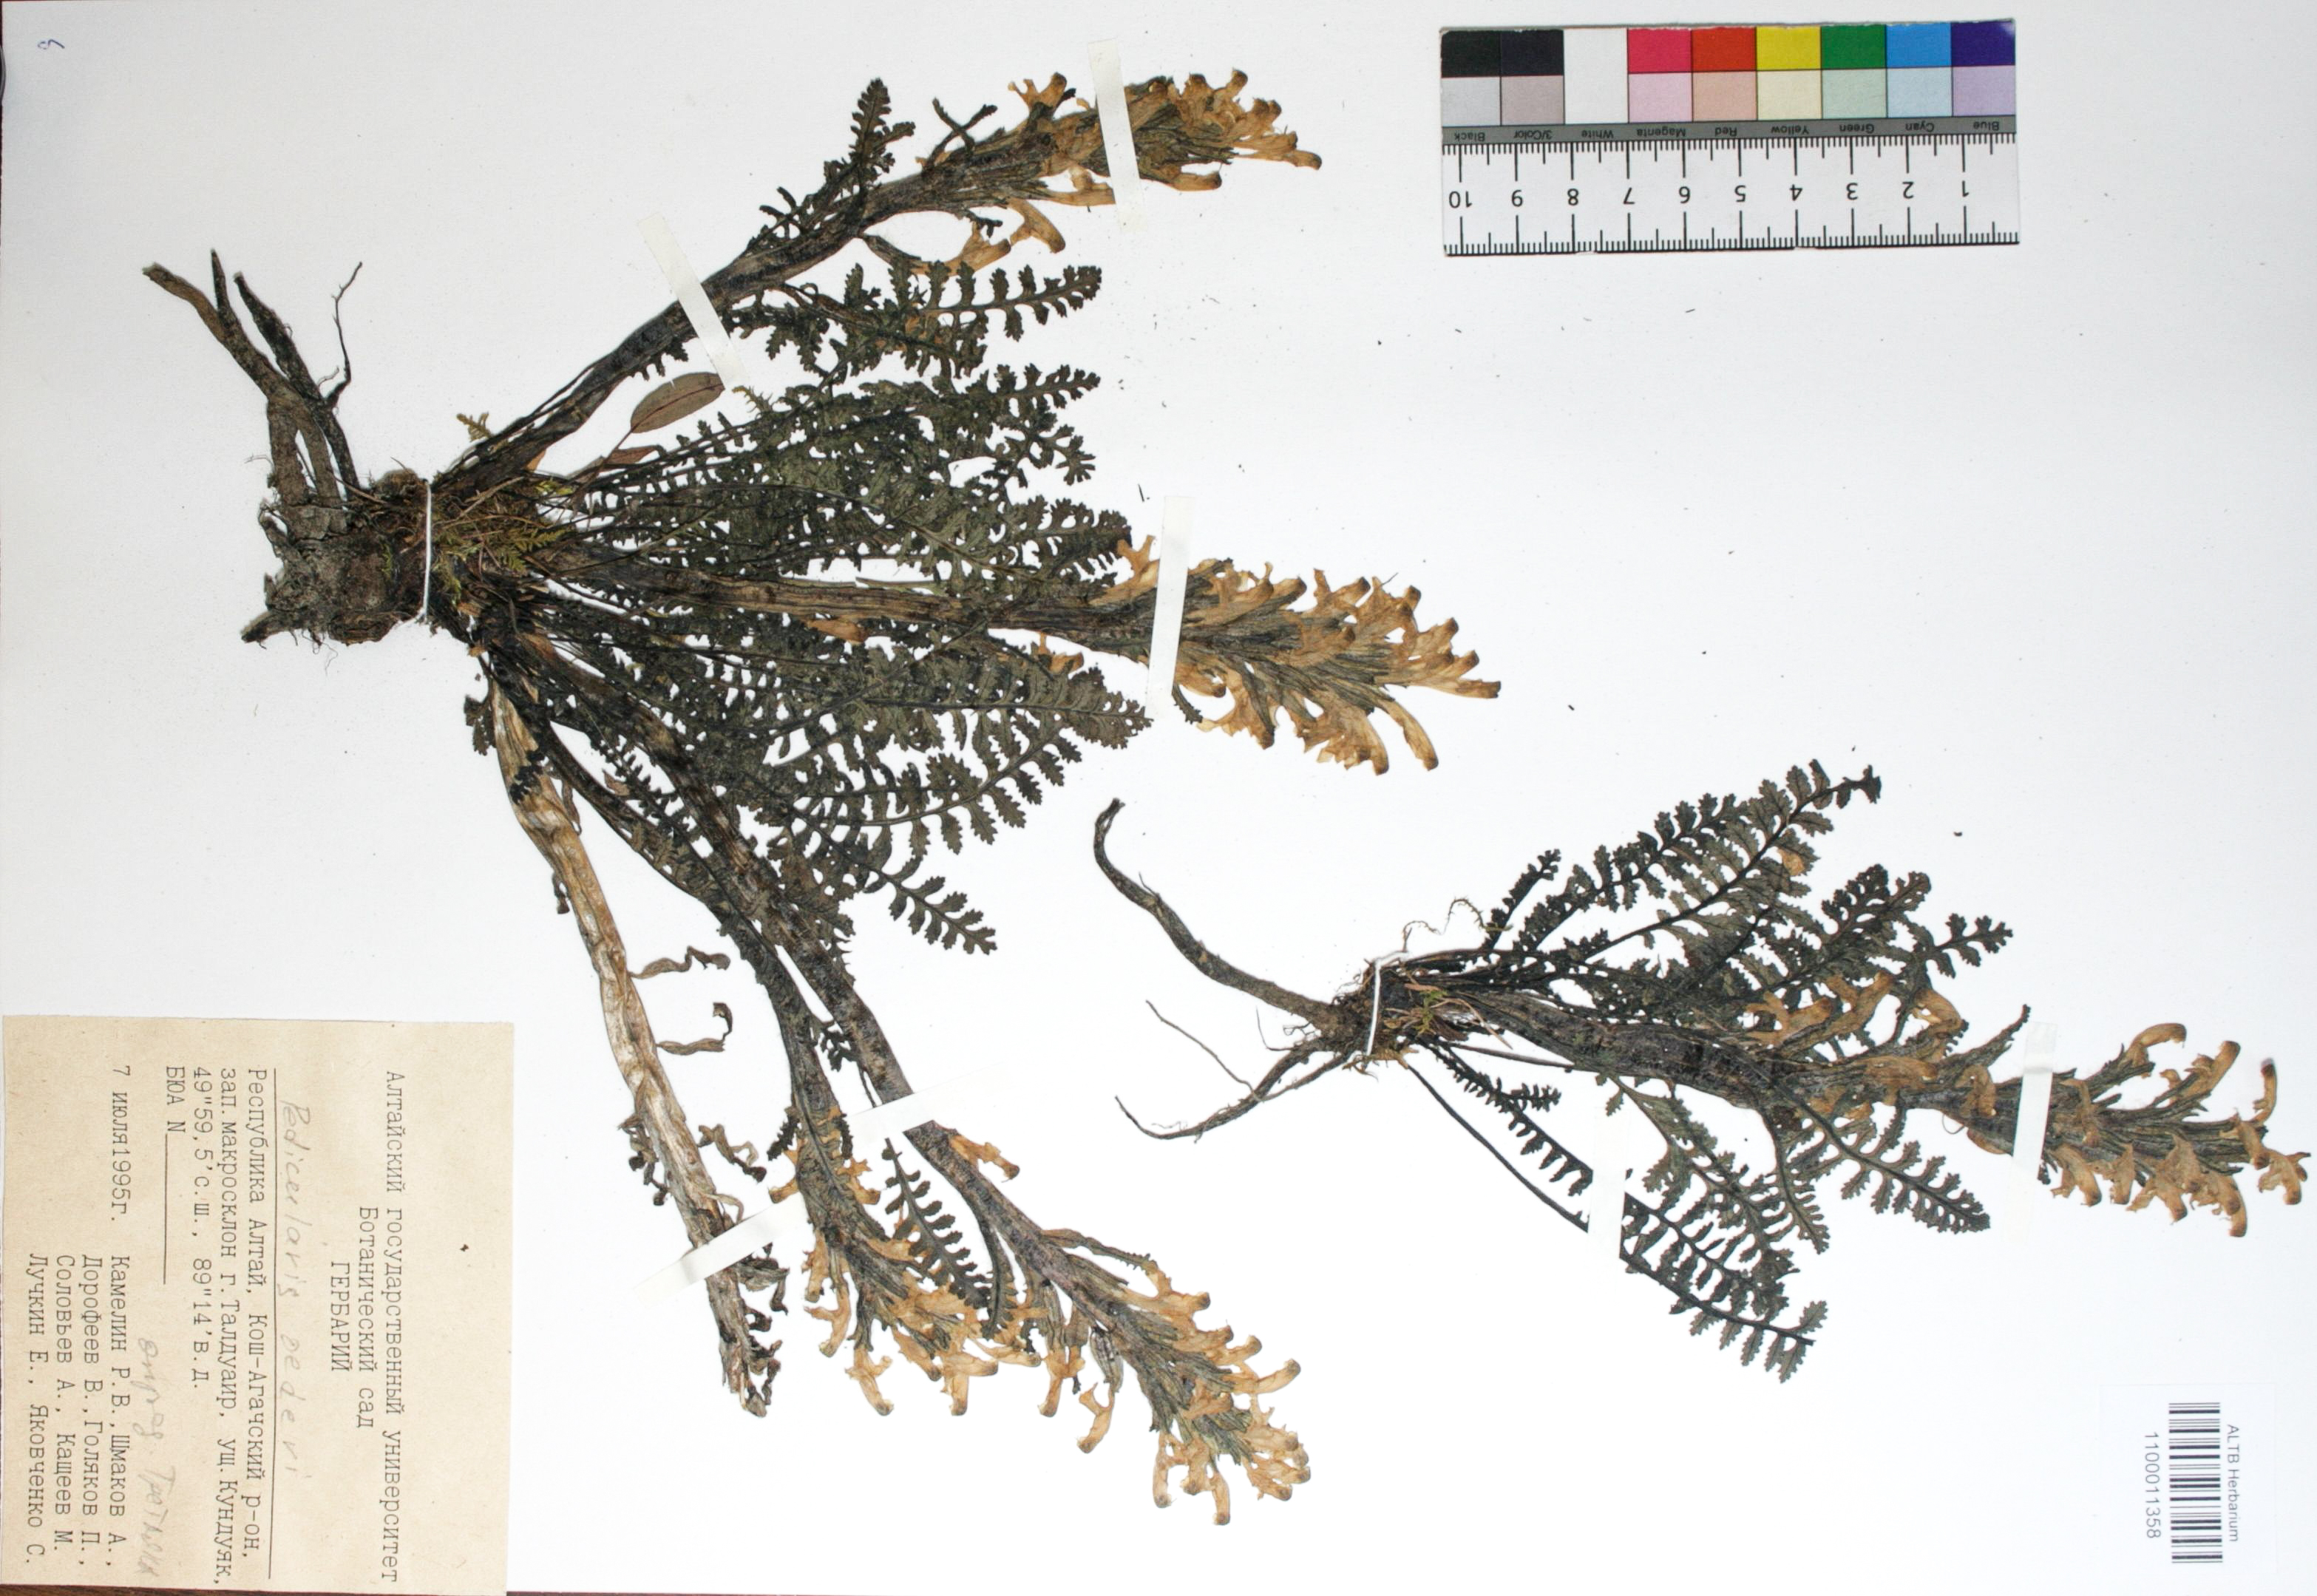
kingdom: Plantae
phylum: Tracheophyta
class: Magnoliopsida
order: Caryophyllales
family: Caryophyllaceae
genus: Silene
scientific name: Silene graminifolia
